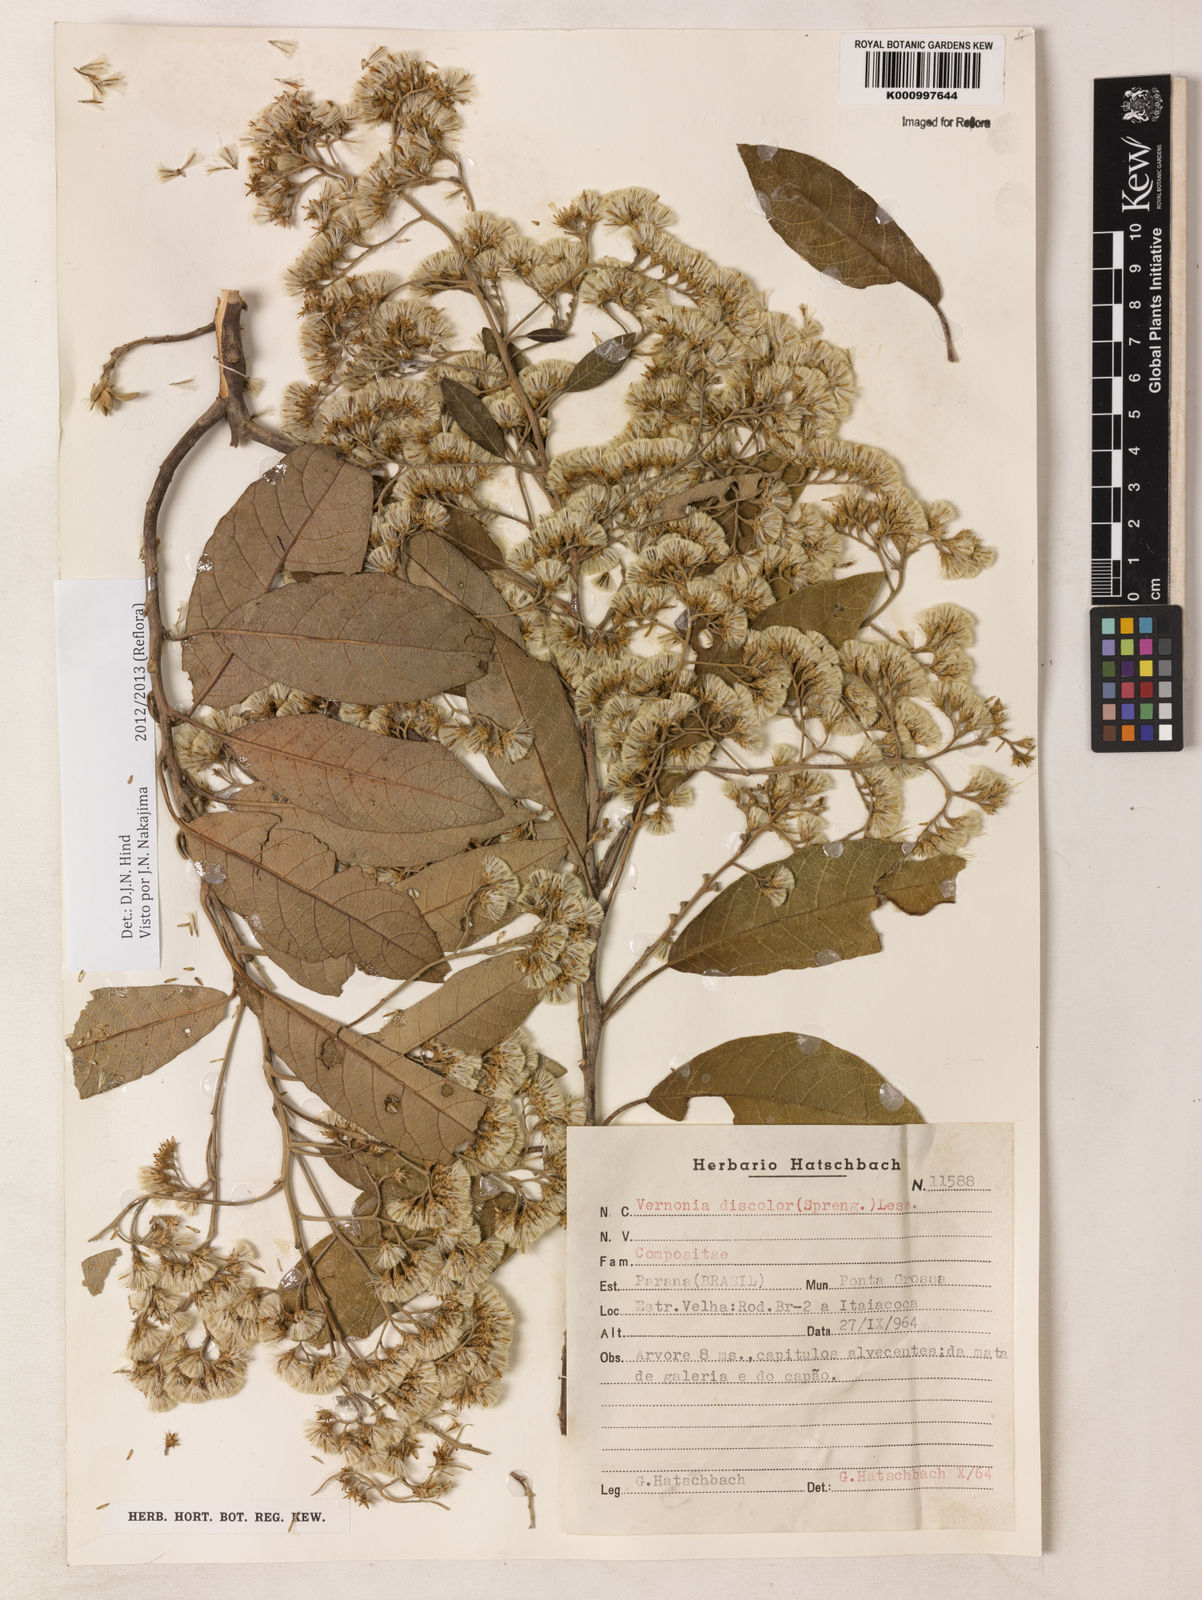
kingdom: Plantae
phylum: Tracheophyta
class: Magnoliopsida
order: Asterales
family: Asteraceae
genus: Vernonanthura
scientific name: Vernonanthura discolor
